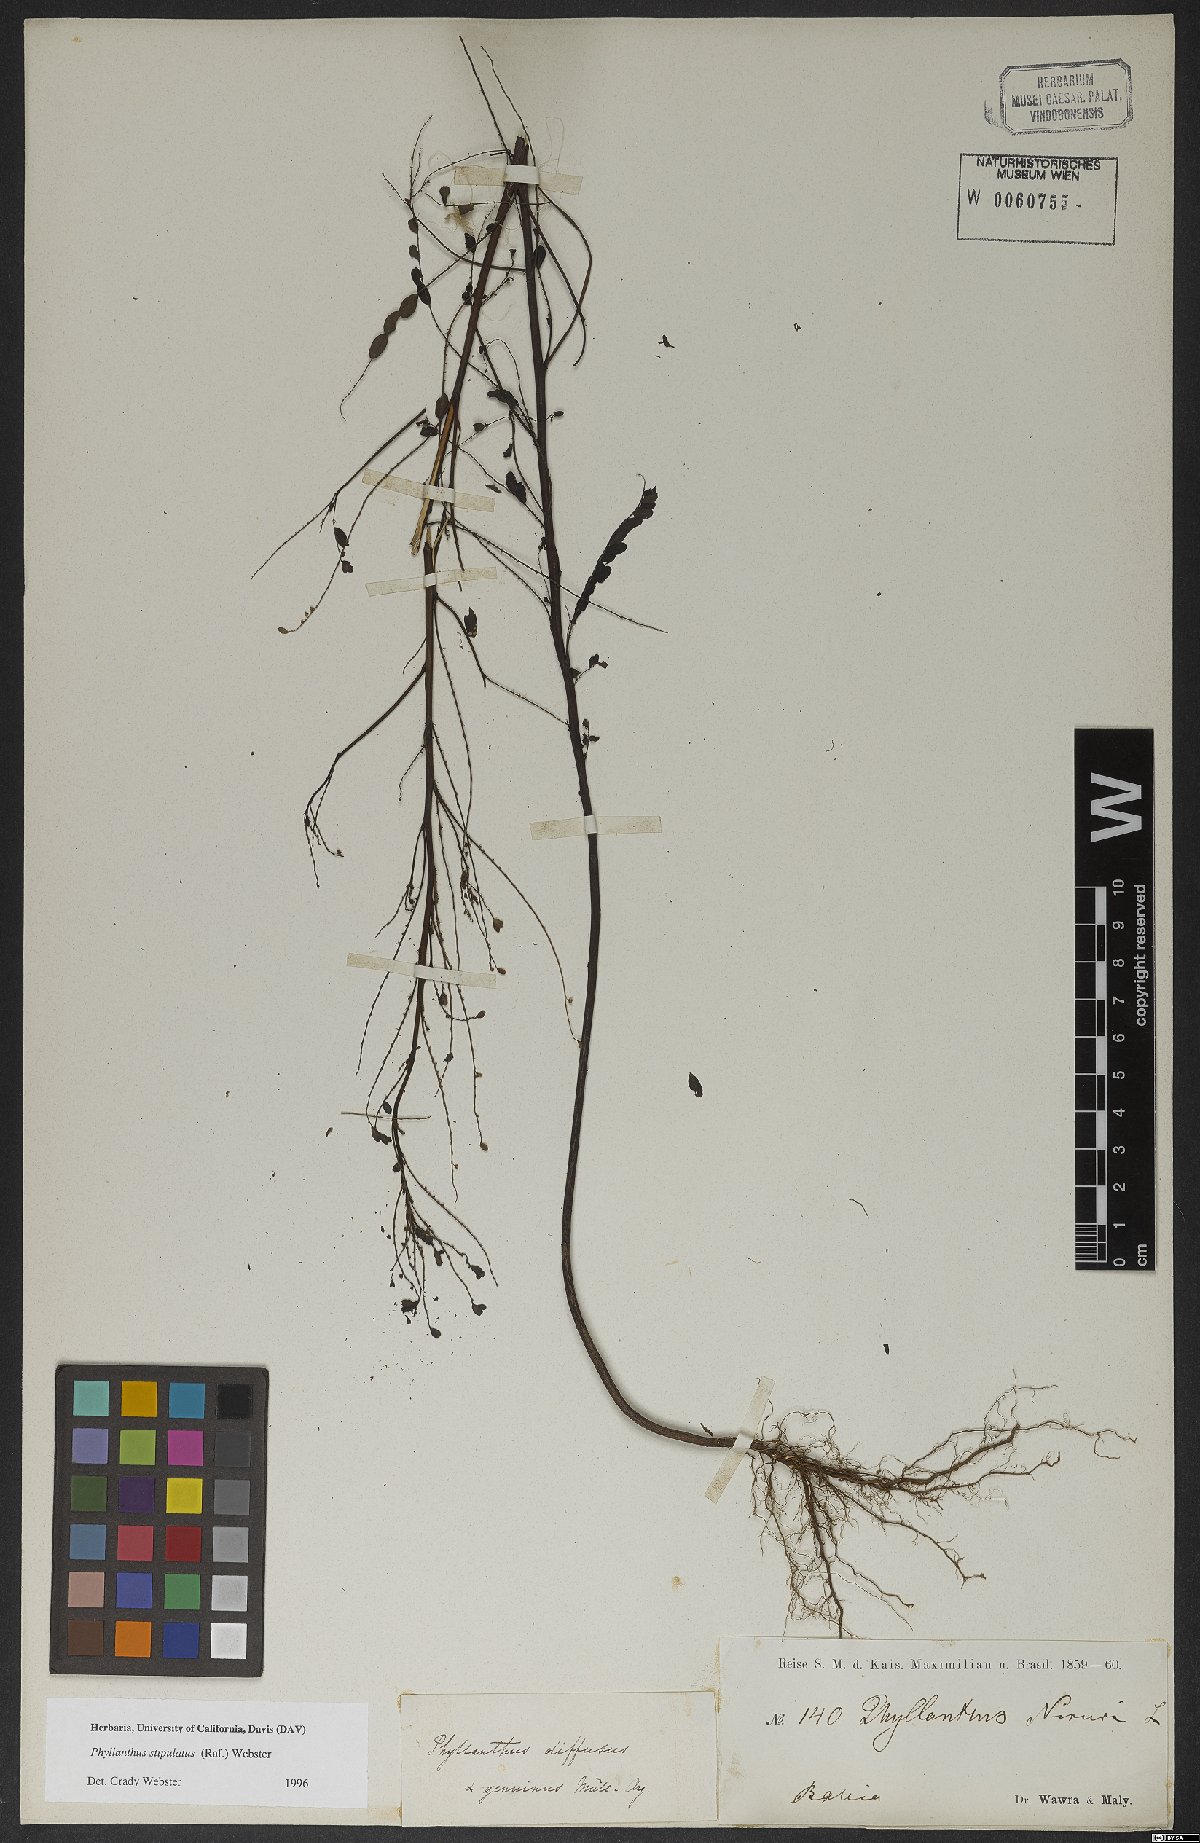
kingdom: Plantae
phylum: Tracheophyta
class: Magnoliopsida
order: Malpighiales
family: Phyllanthaceae
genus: Phyllanthus
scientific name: Phyllanthus stipulatus
